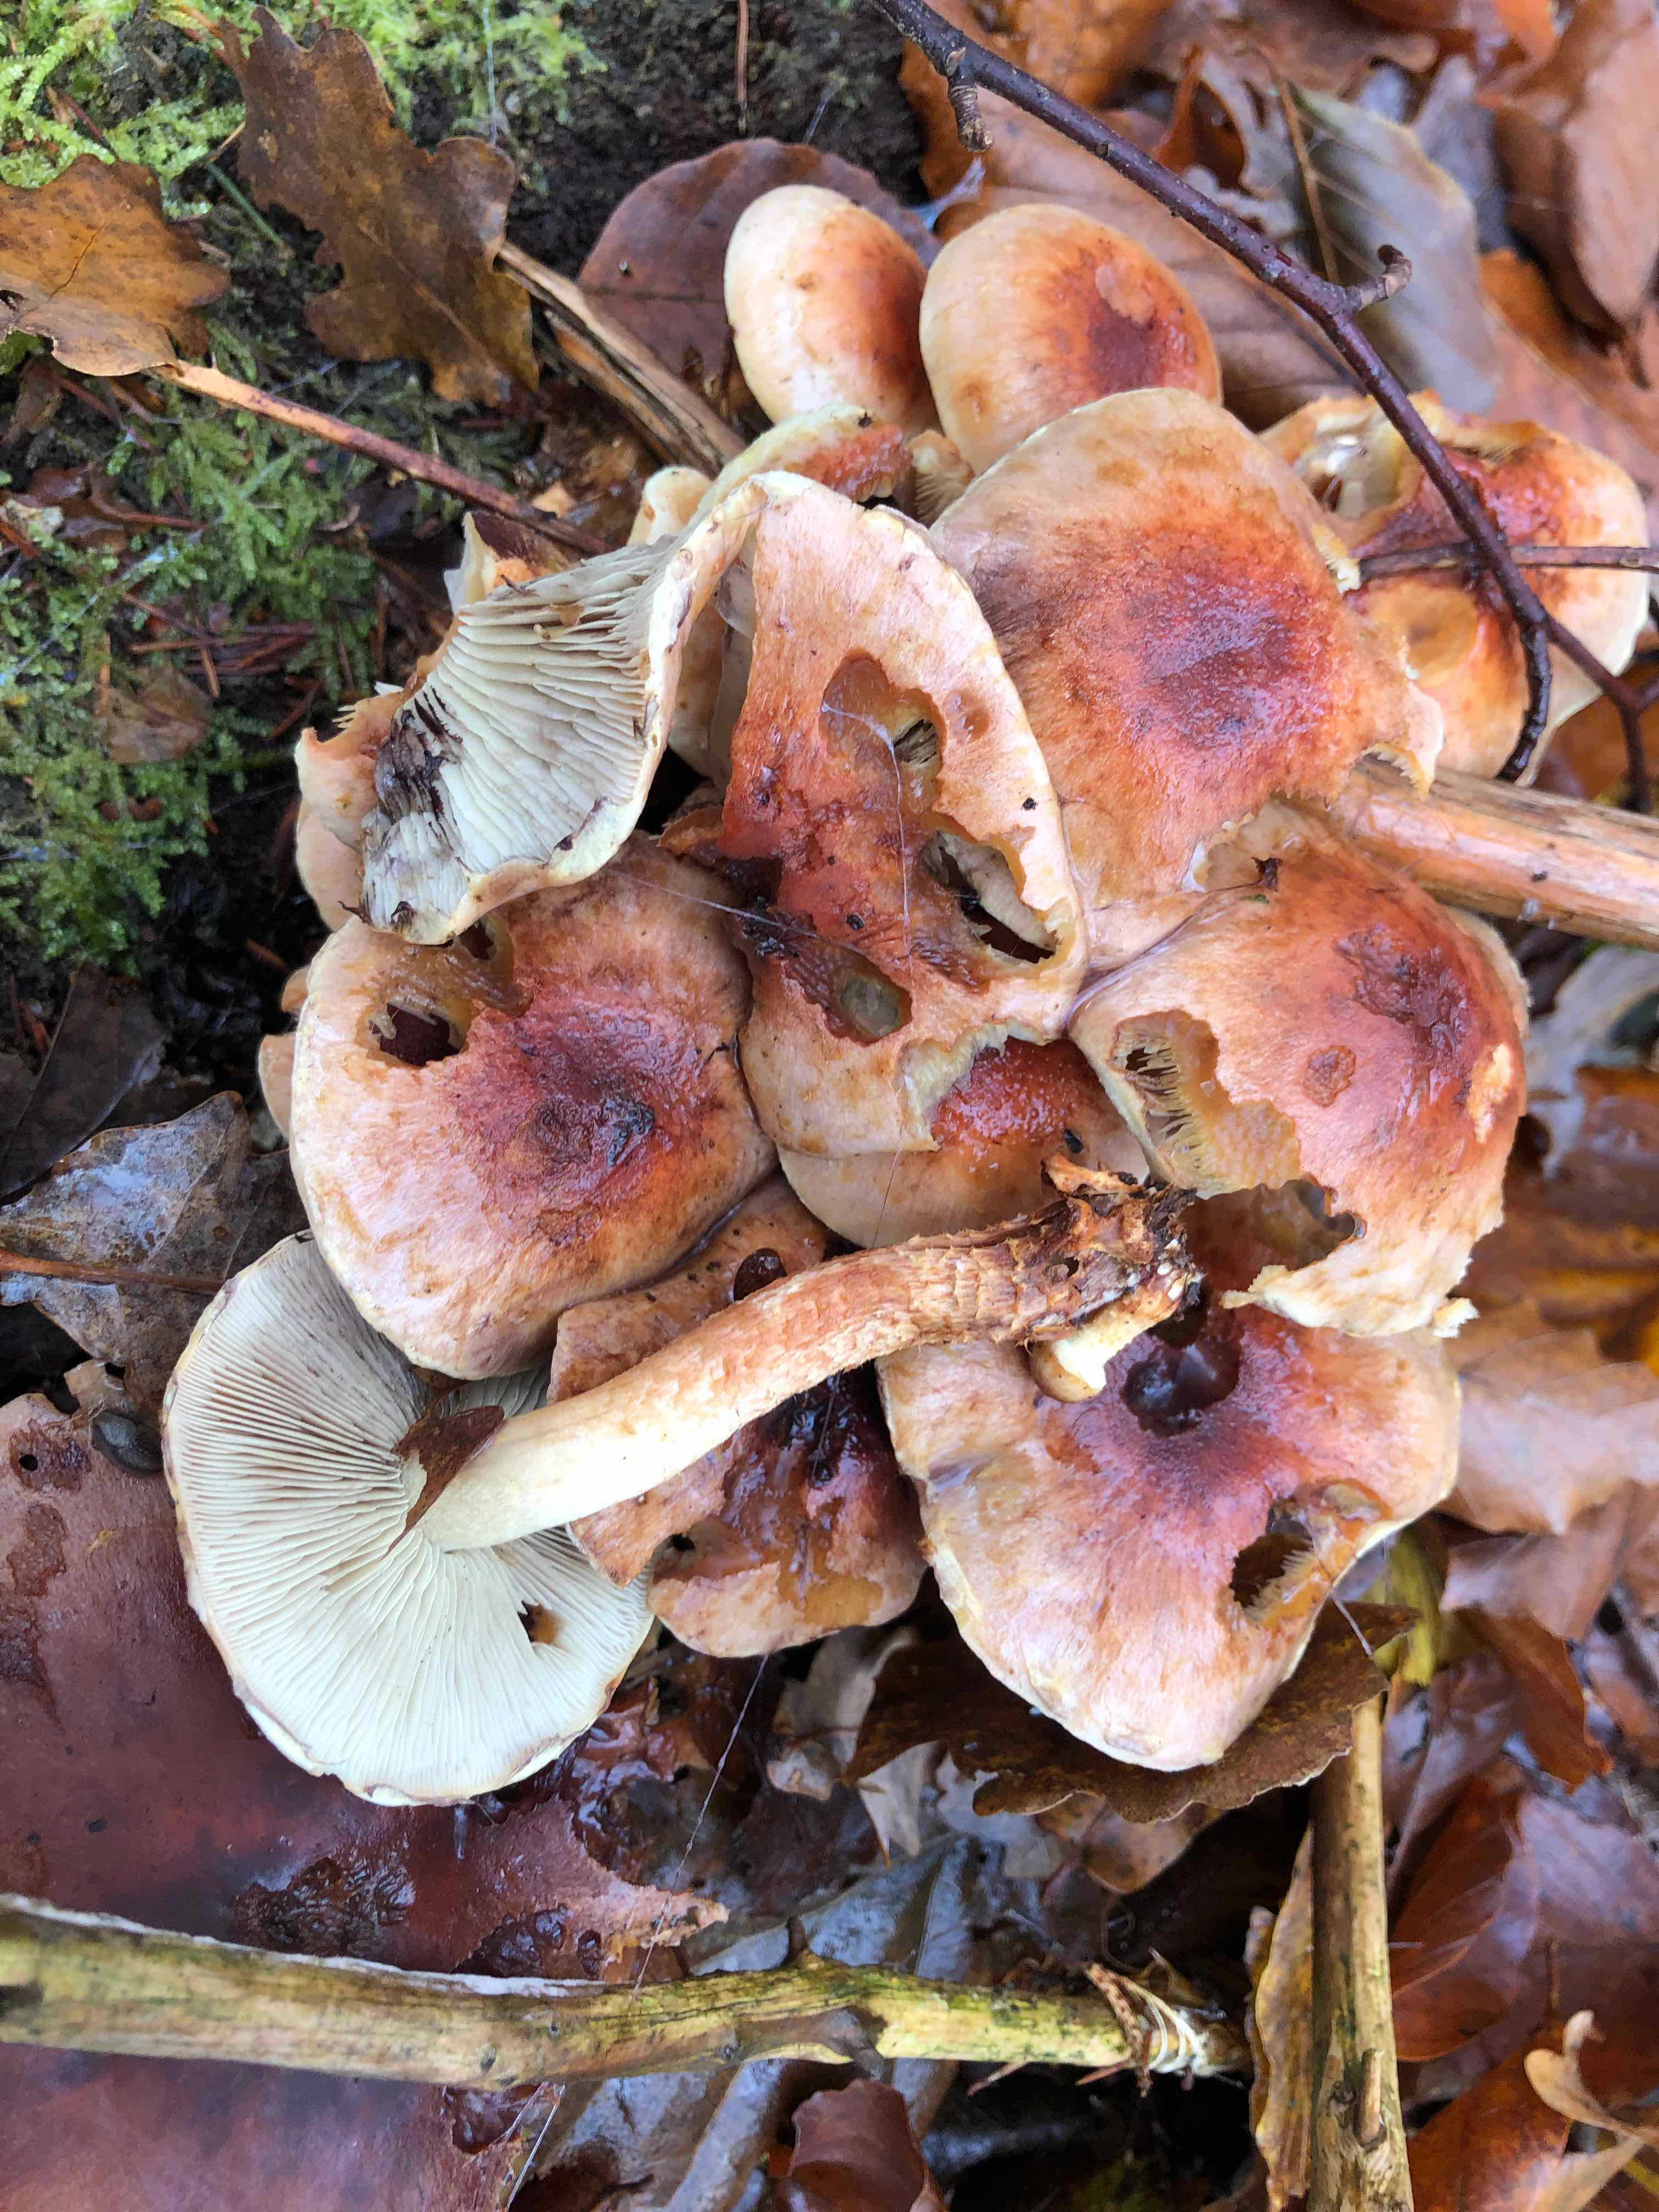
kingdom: Fungi
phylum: Basidiomycota
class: Agaricomycetes
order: Agaricales
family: Strophariaceae
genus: Hypholoma
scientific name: Hypholoma lateritium
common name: teglrød svovlhat
